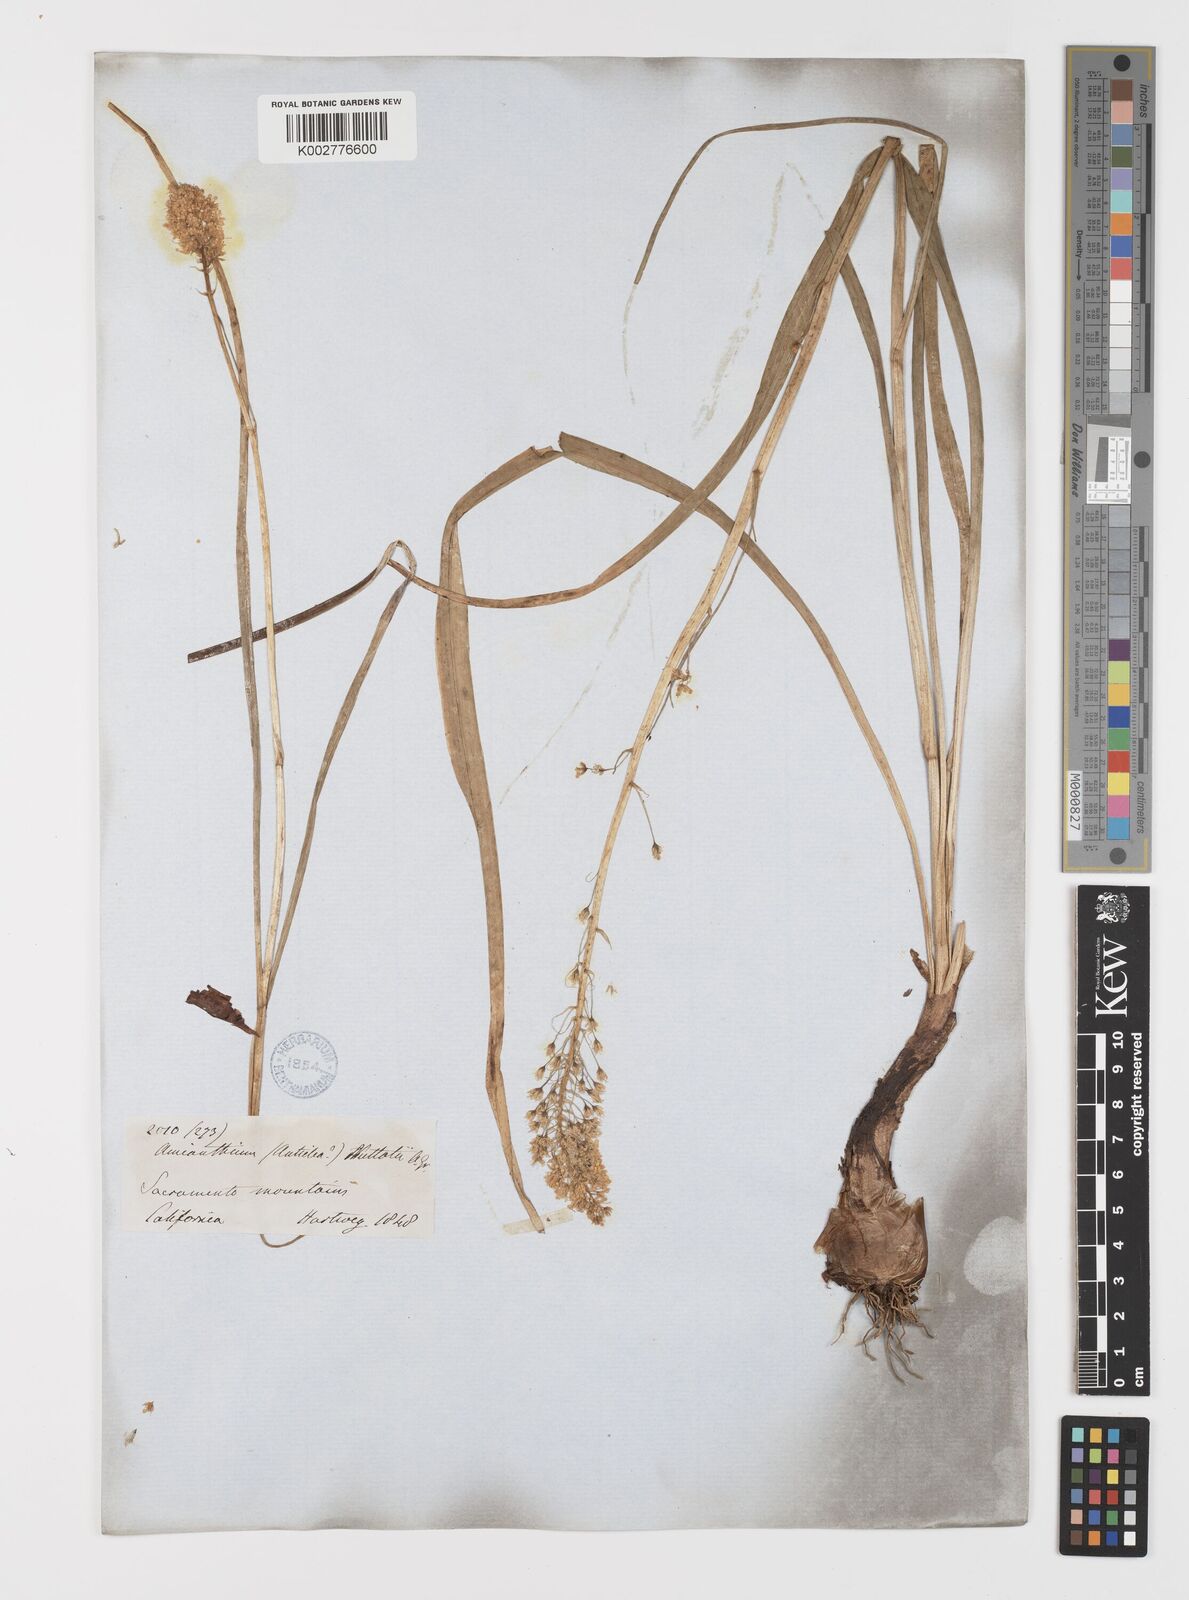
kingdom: Plantae
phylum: Tracheophyta
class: Liliopsida
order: Liliales
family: Melanthiaceae
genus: Toxicoscordion
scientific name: Toxicoscordion nuttallii
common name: Poison sego
